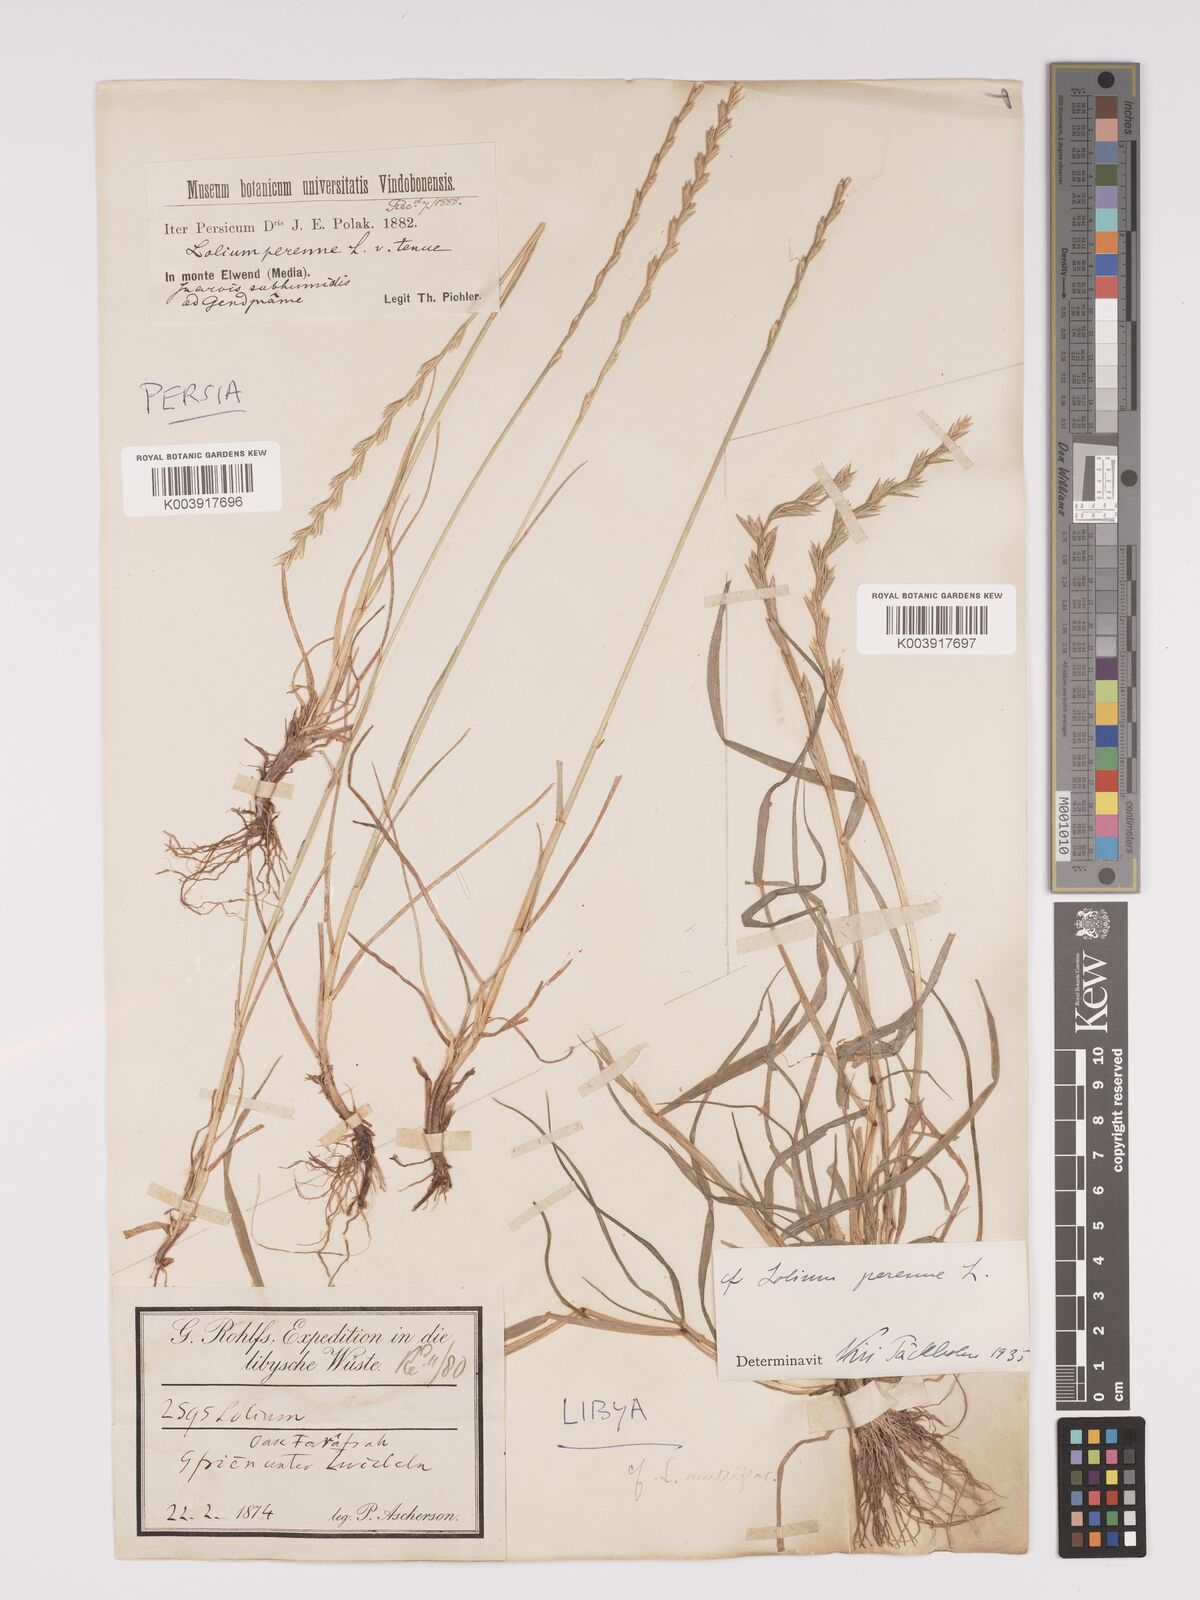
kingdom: Plantae
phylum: Tracheophyta
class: Liliopsida
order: Poales
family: Poaceae
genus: Lolium
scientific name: Lolium perenne
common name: Perennial ryegrass
